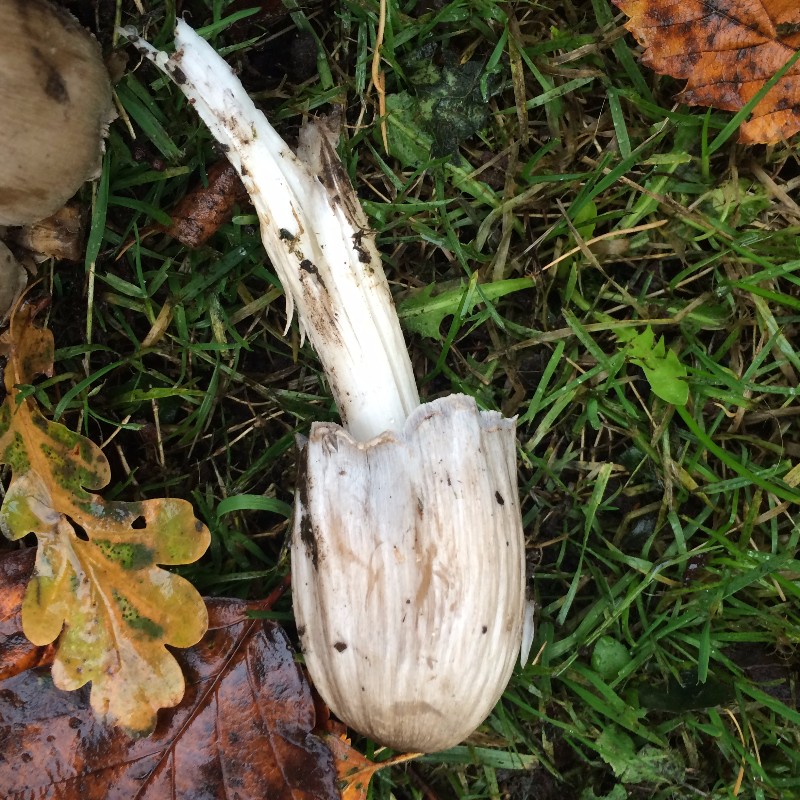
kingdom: Fungi
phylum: Basidiomycota
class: Agaricomycetes
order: Agaricales
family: Psathyrellaceae
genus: Coprinopsis
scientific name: Coprinopsis atramentaria
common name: almindelig blækhat
